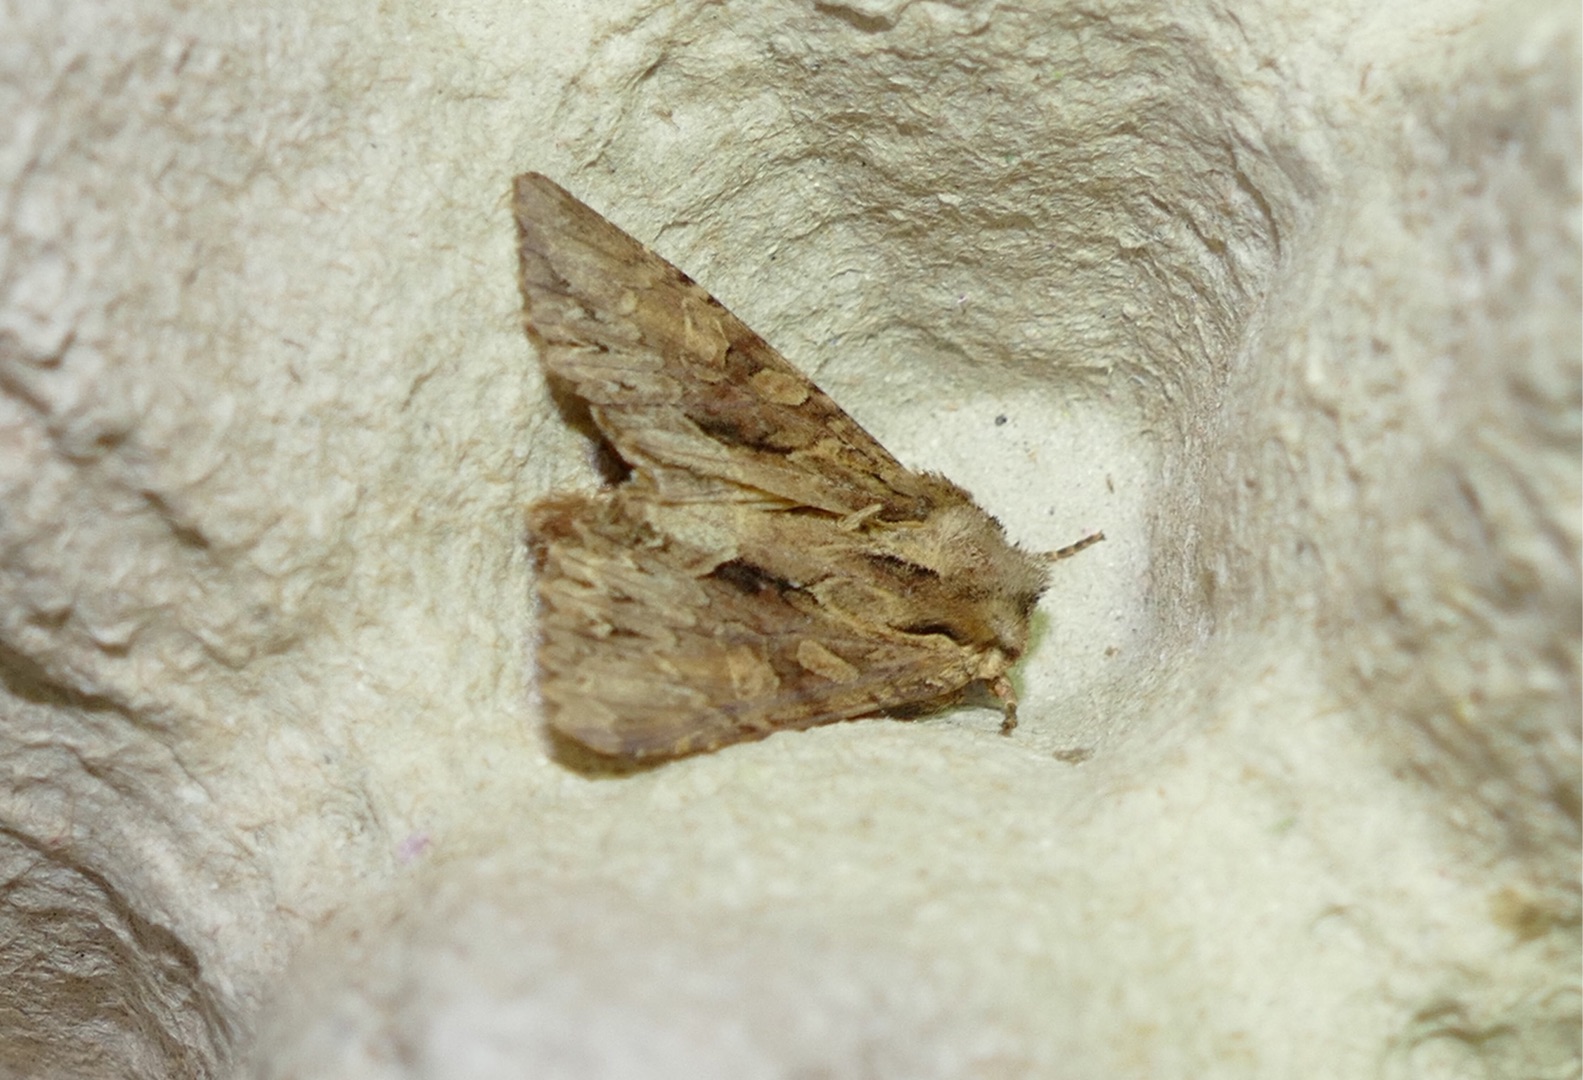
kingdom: Animalia
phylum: Arthropoda
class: Insecta
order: Lepidoptera
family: Noctuidae
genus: Apamea
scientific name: Apamea monoglypha
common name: Jordugle
